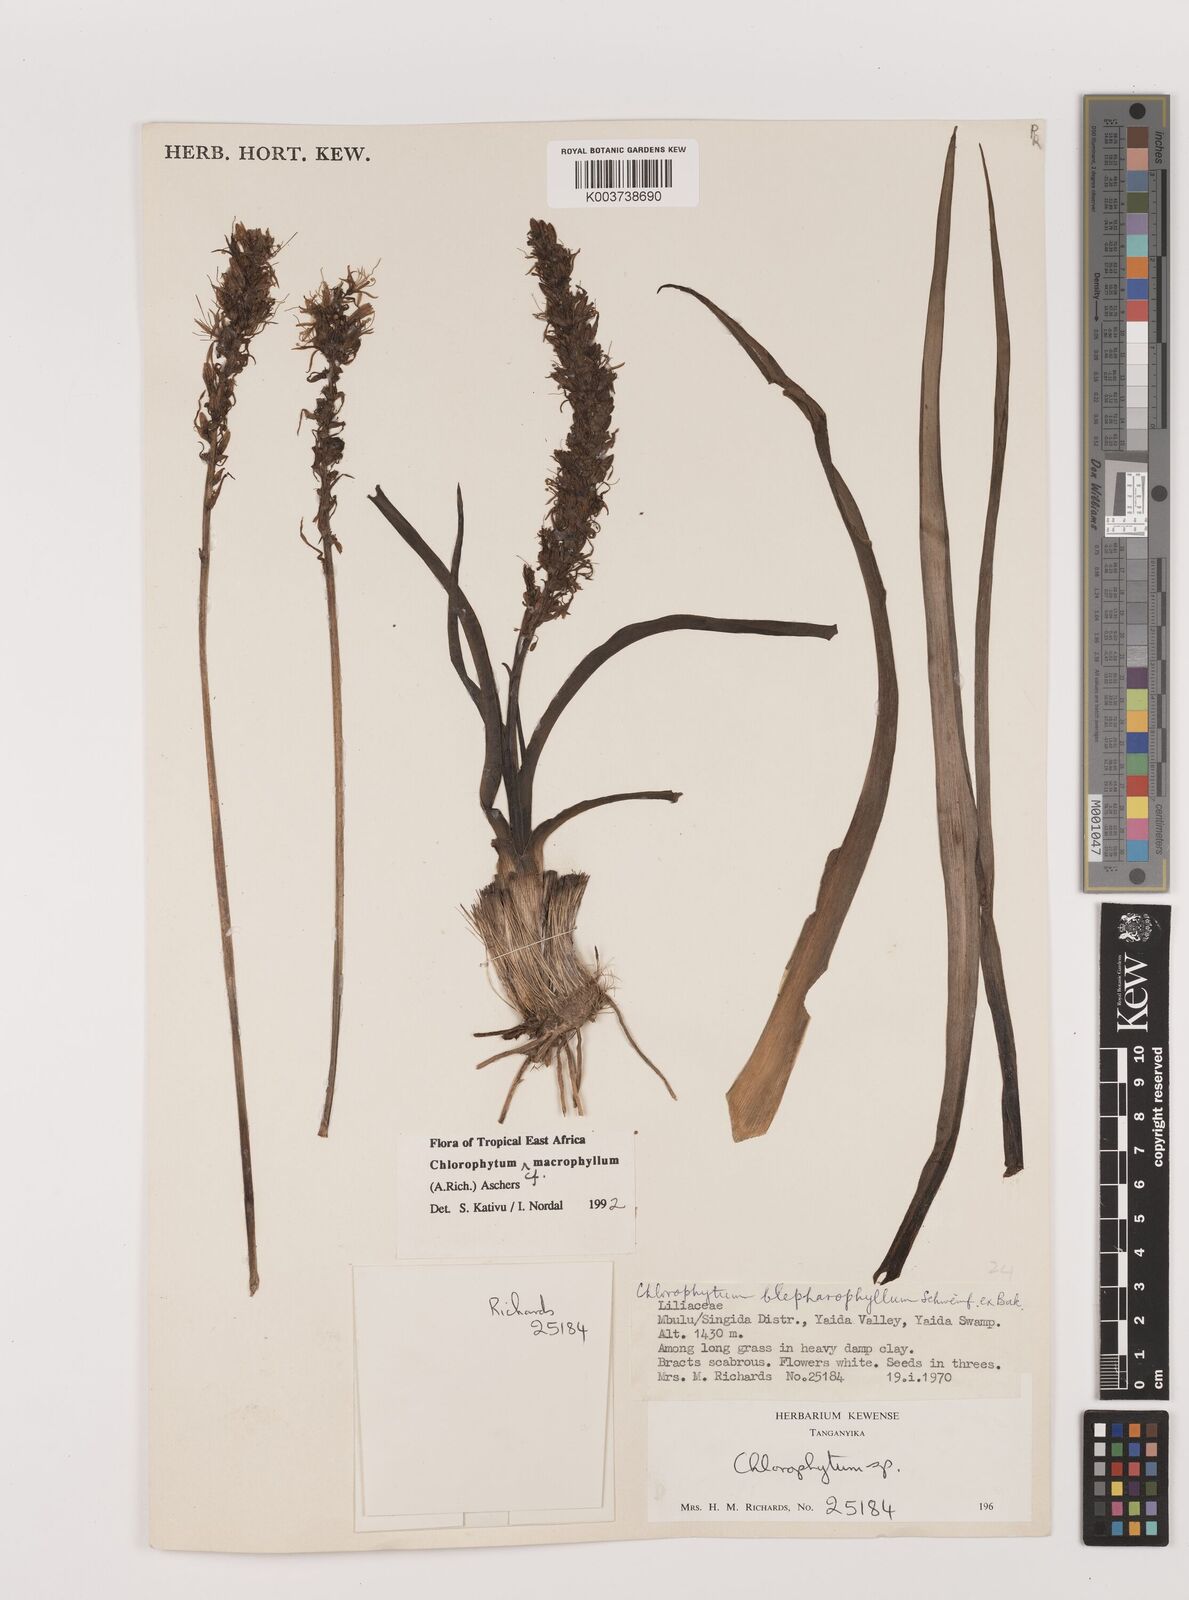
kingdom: Plantae
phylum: Tracheophyta
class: Liliopsida
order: Asparagales
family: Asparagaceae
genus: Chlorophytum
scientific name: Chlorophytum macrophyllum
